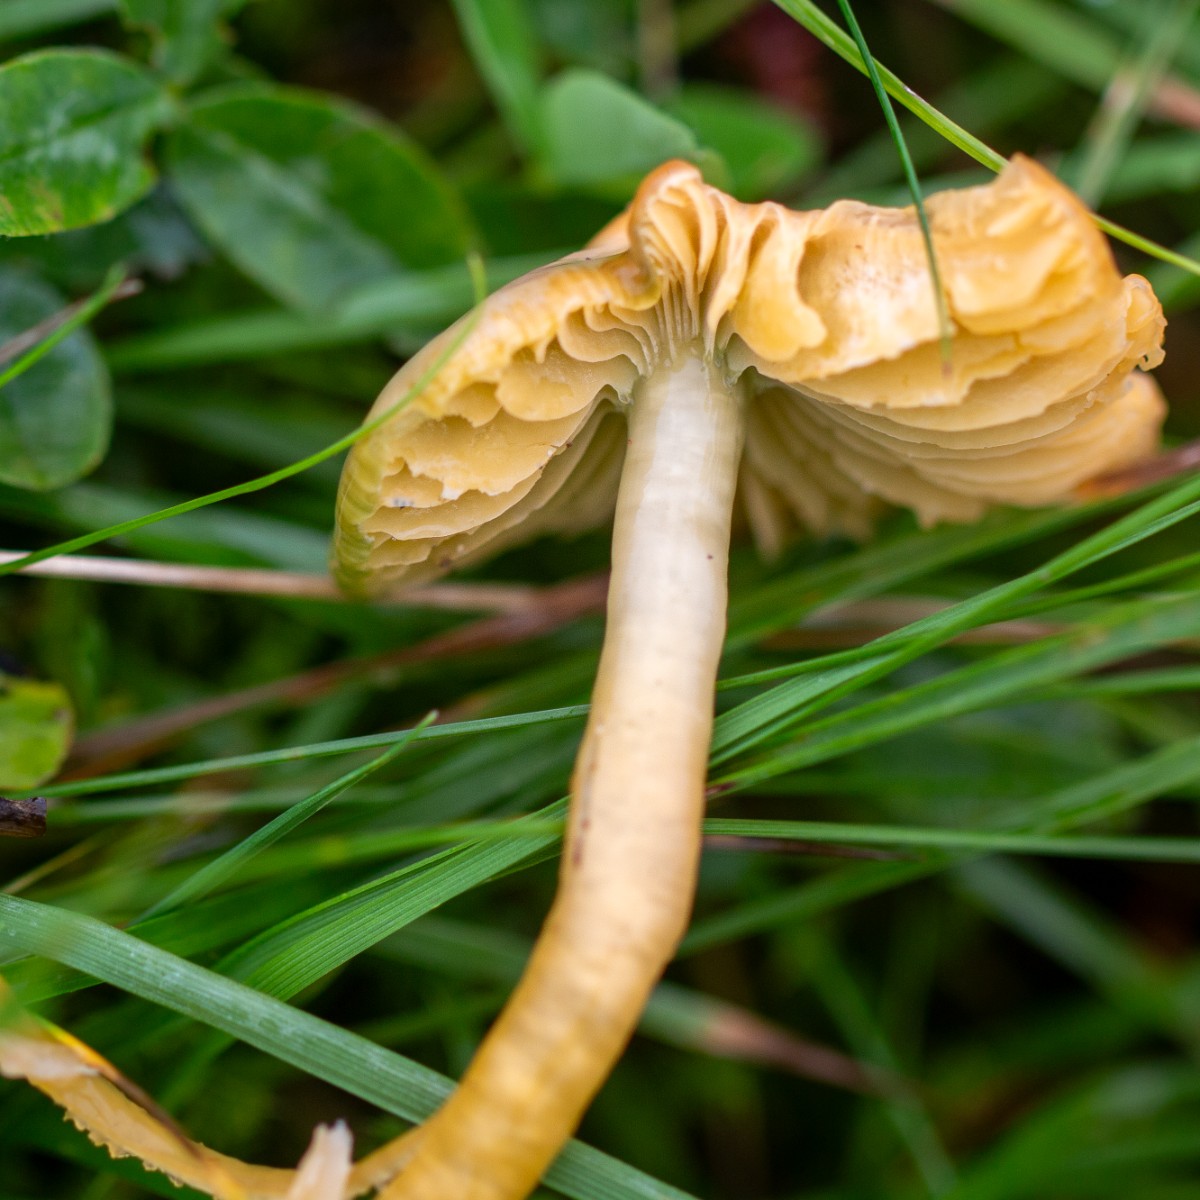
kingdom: Fungi
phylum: Basidiomycota
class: Agaricomycetes
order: Agaricales
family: Hygrophoraceae
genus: Gliophorus
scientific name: Gliophorus psittacinus
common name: papegøje-vokshat
